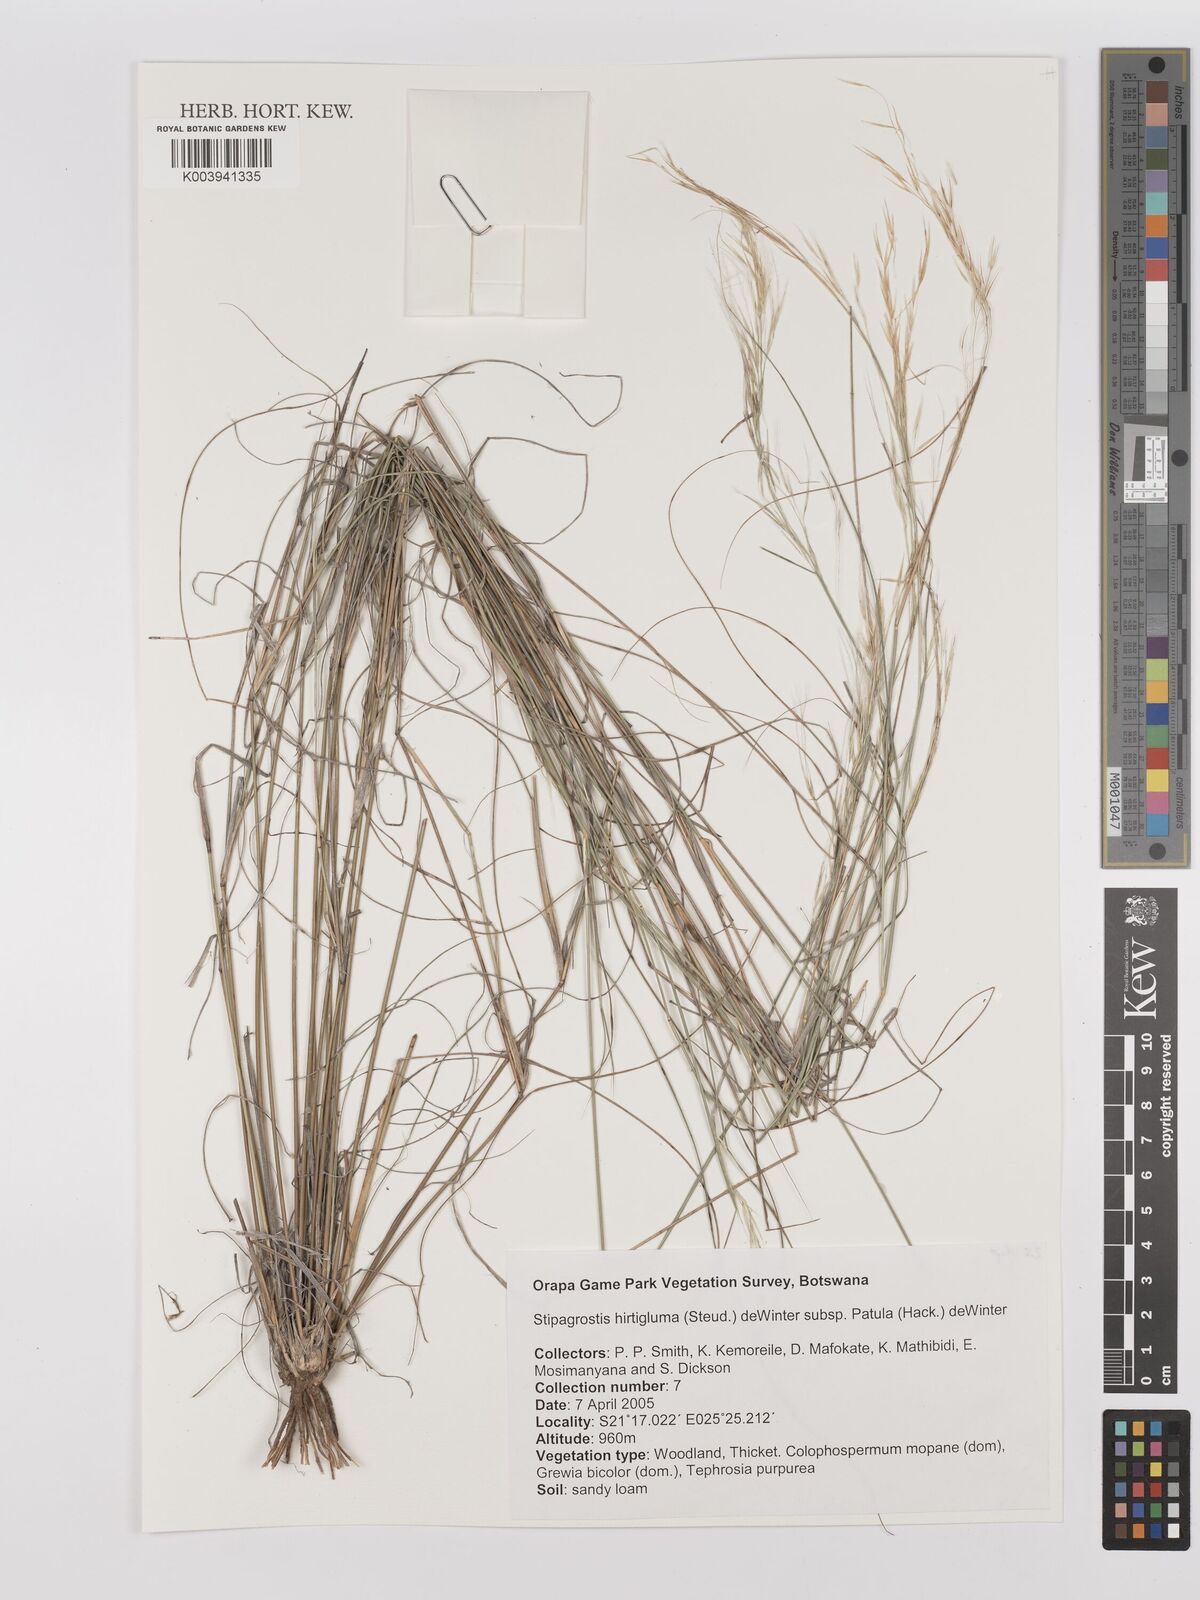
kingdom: Plantae
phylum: Tracheophyta
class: Liliopsida
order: Poales
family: Poaceae
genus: Stipagrostis
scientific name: Stipagrostis hirtigluma
